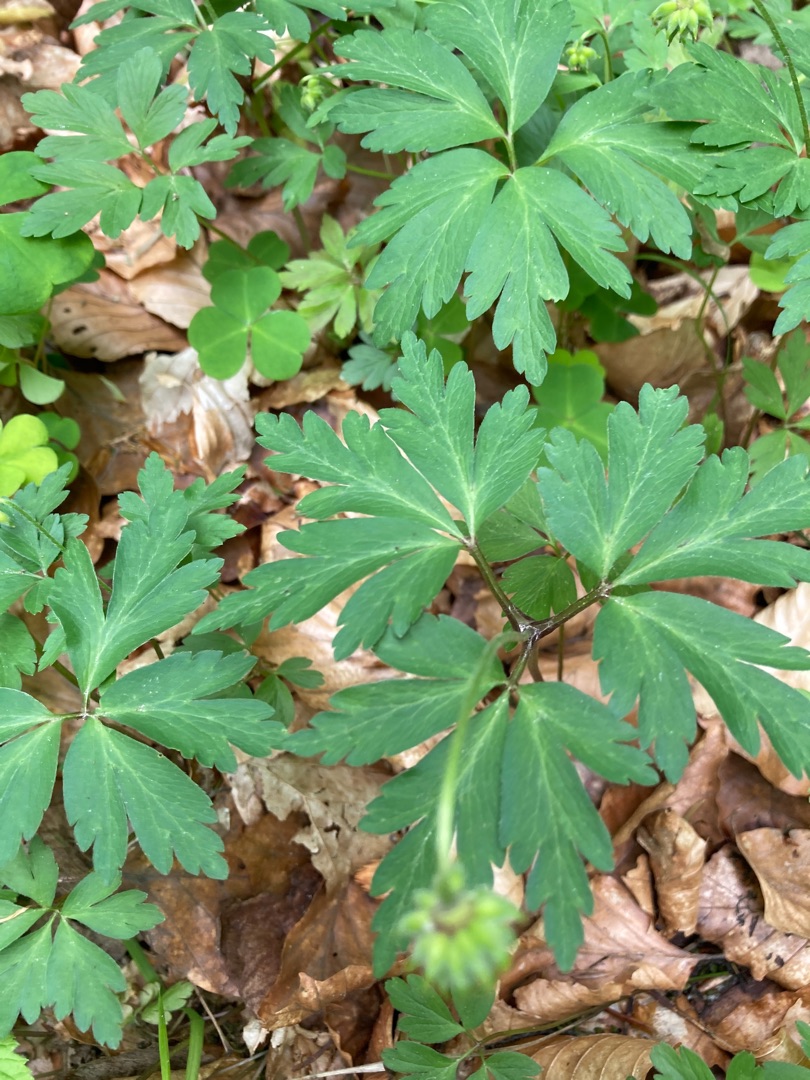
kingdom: Plantae
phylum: Tracheophyta
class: Magnoliopsida
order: Ranunculales
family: Ranunculaceae
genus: Anemone
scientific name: Anemone nemorosa
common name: Hvid anemone
